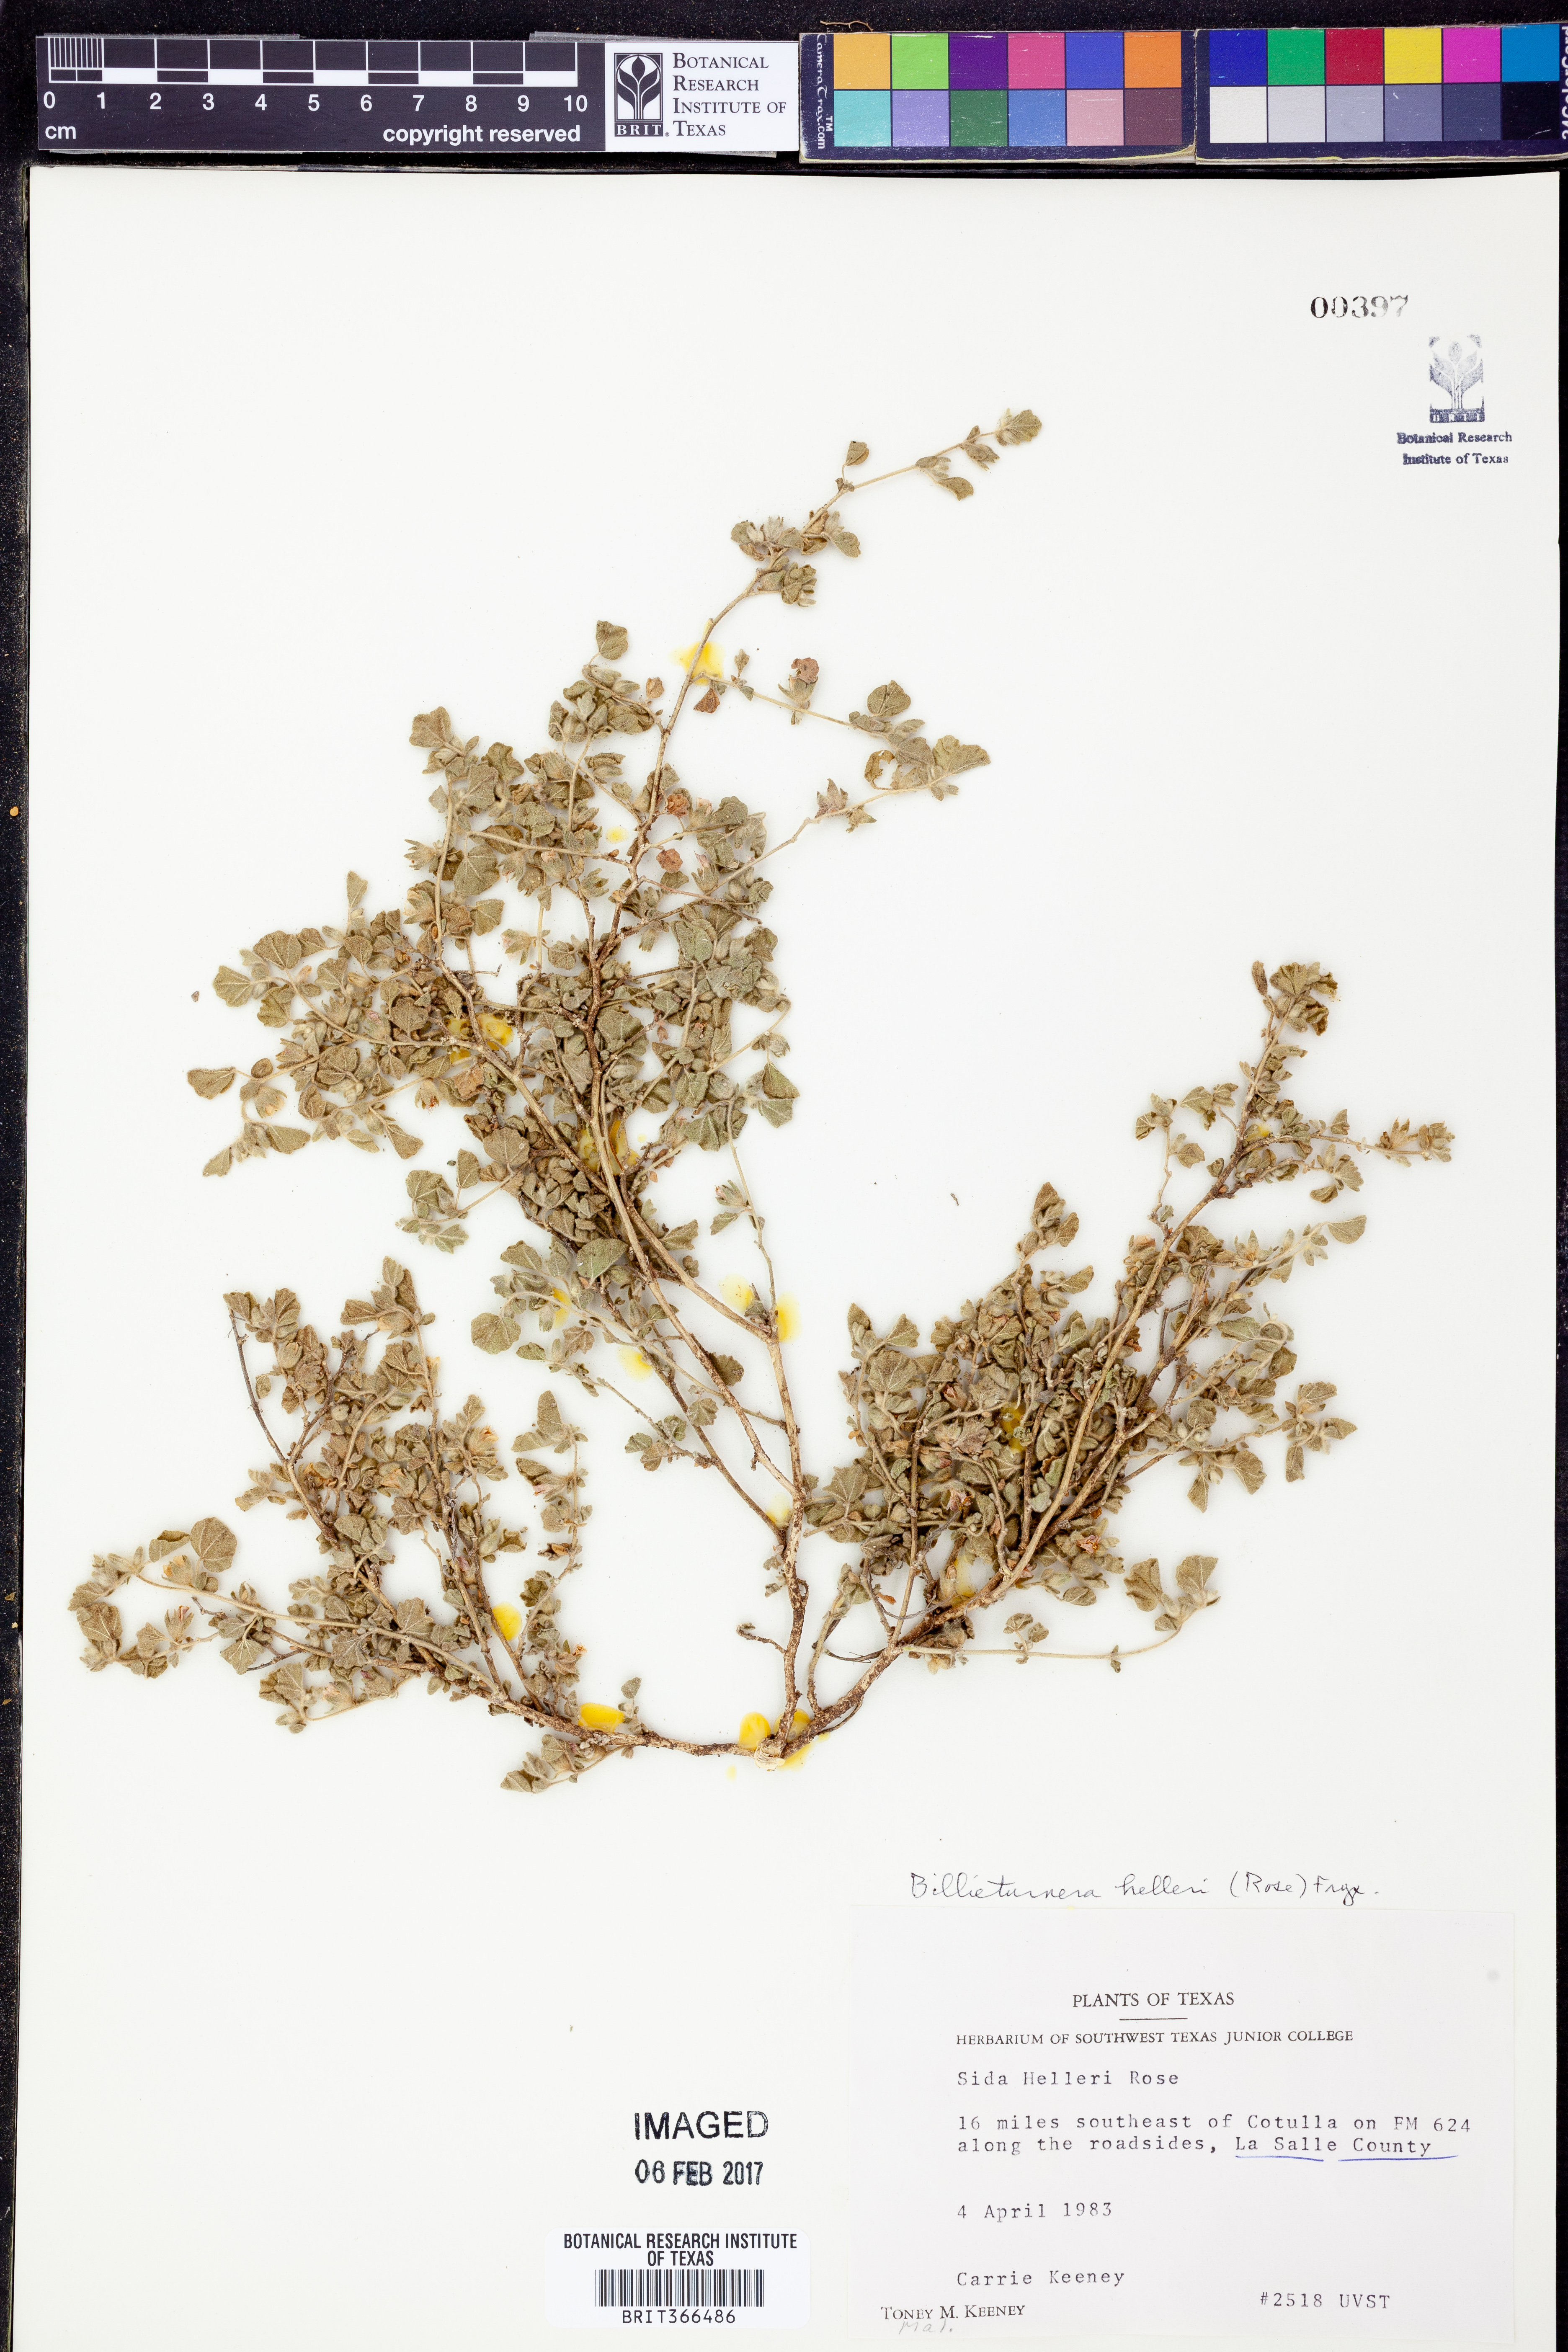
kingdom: Plantae
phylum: Tracheophyta
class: Magnoliopsida
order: Malvales
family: Malvaceae
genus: Billieturnera
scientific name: Billieturnera helleri
